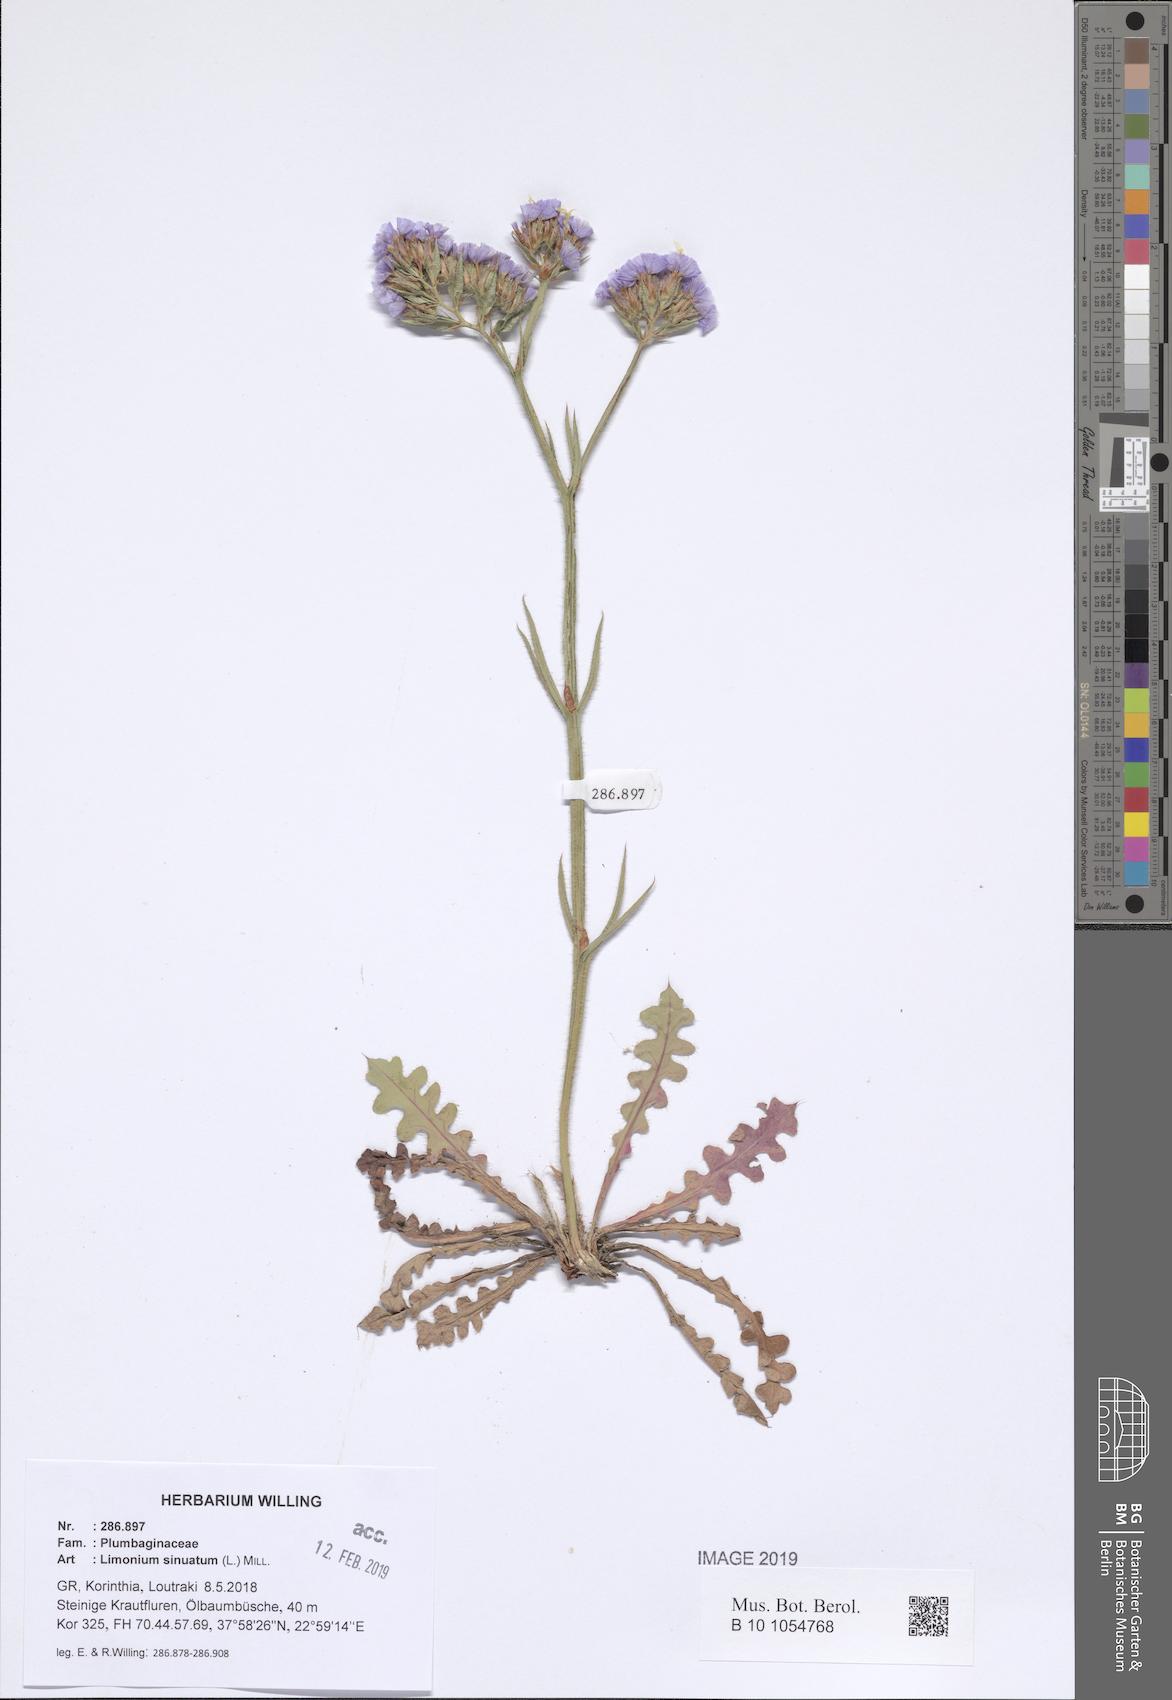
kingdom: Plantae
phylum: Tracheophyta
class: Magnoliopsida
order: Caryophyllales
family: Plumbaginaceae
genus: Limonium
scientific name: Limonium sinuatum
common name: Statice
